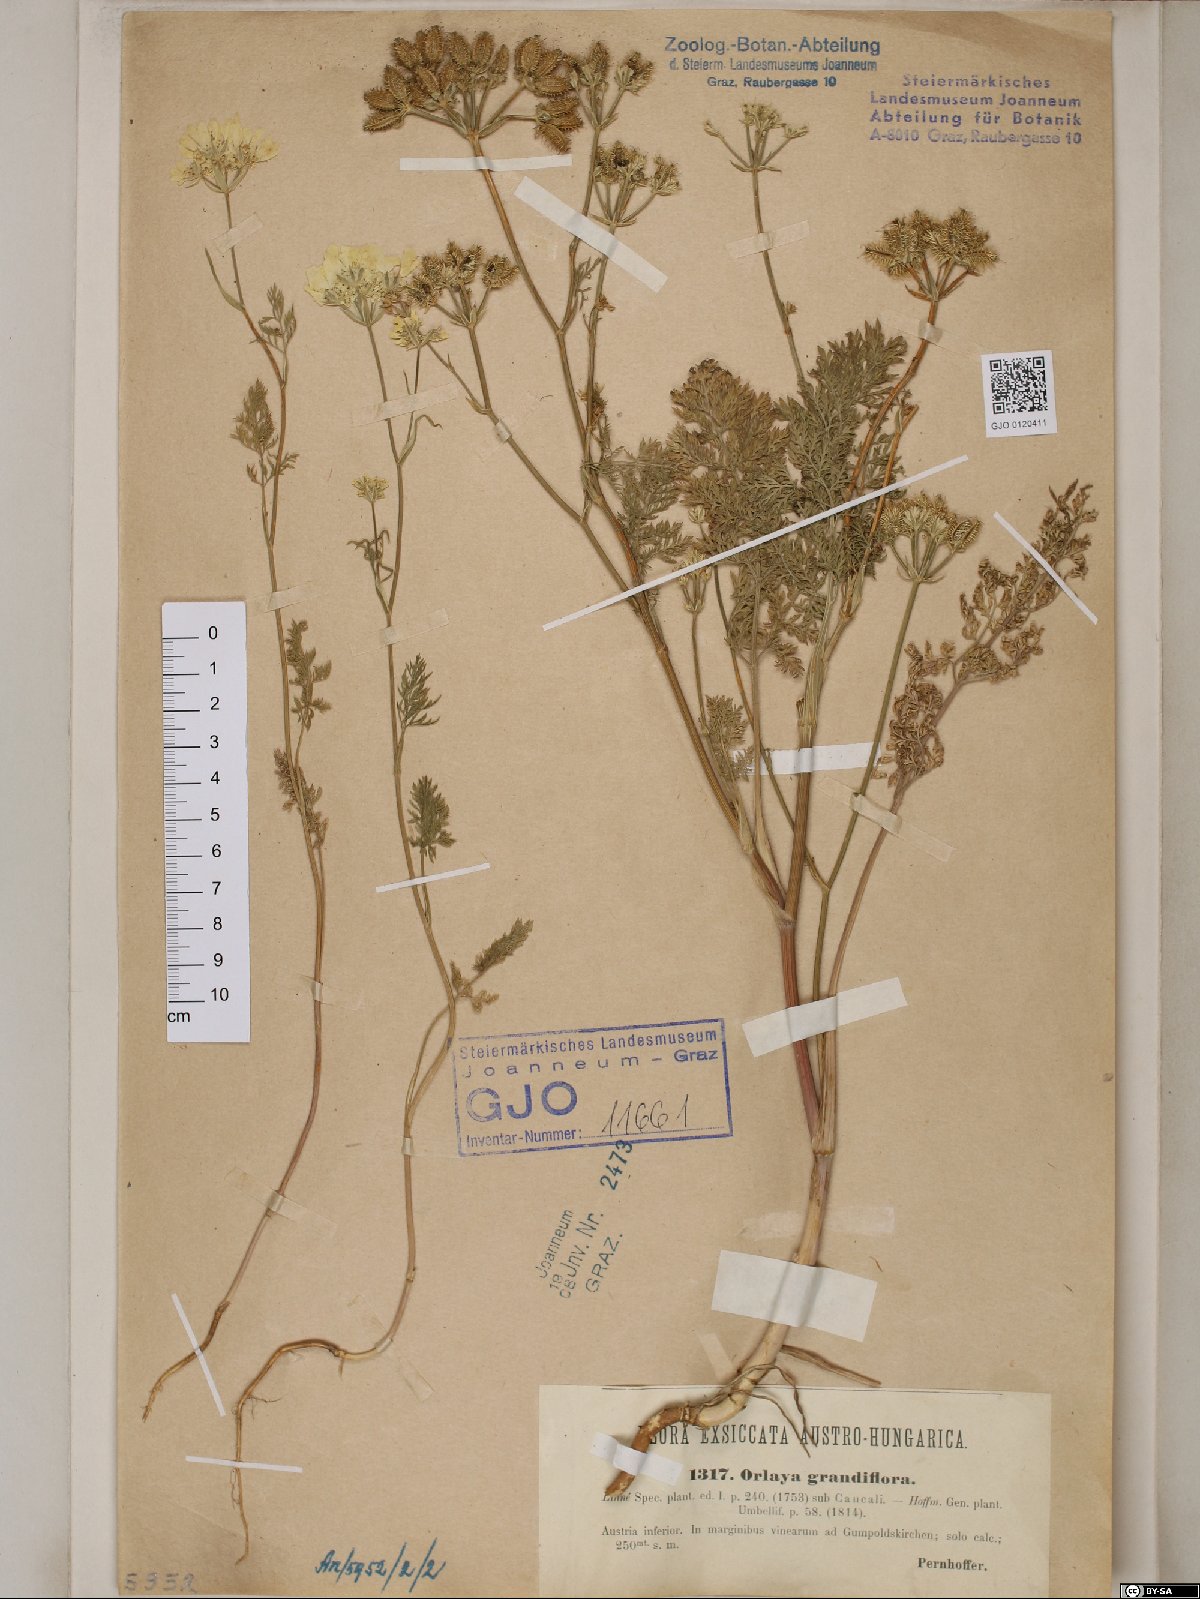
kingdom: Plantae
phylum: Tracheophyta
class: Magnoliopsida
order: Apiales
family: Apiaceae
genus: Orlaya
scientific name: Orlaya grandiflora
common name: White lace flower
